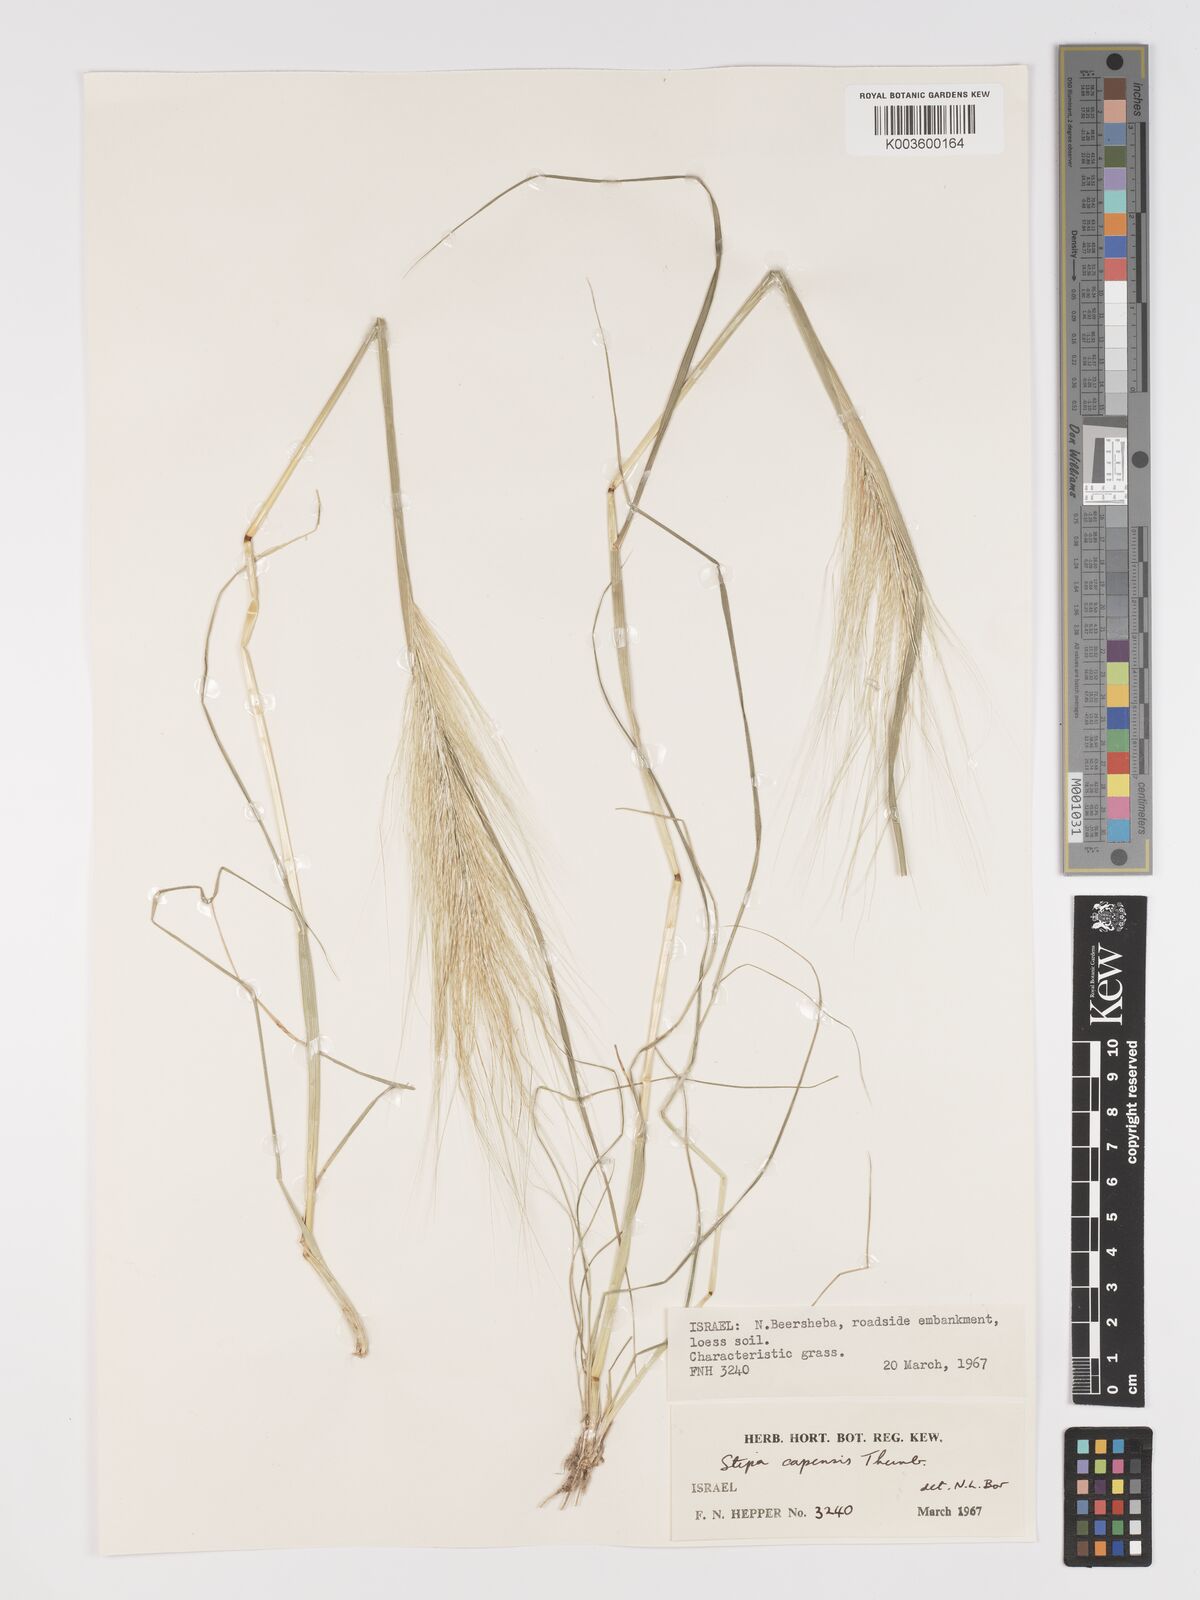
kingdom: Plantae
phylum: Tracheophyta
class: Liliopsida
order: Poales
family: Poaceae
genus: Stipellula
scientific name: Stipellula capensis
